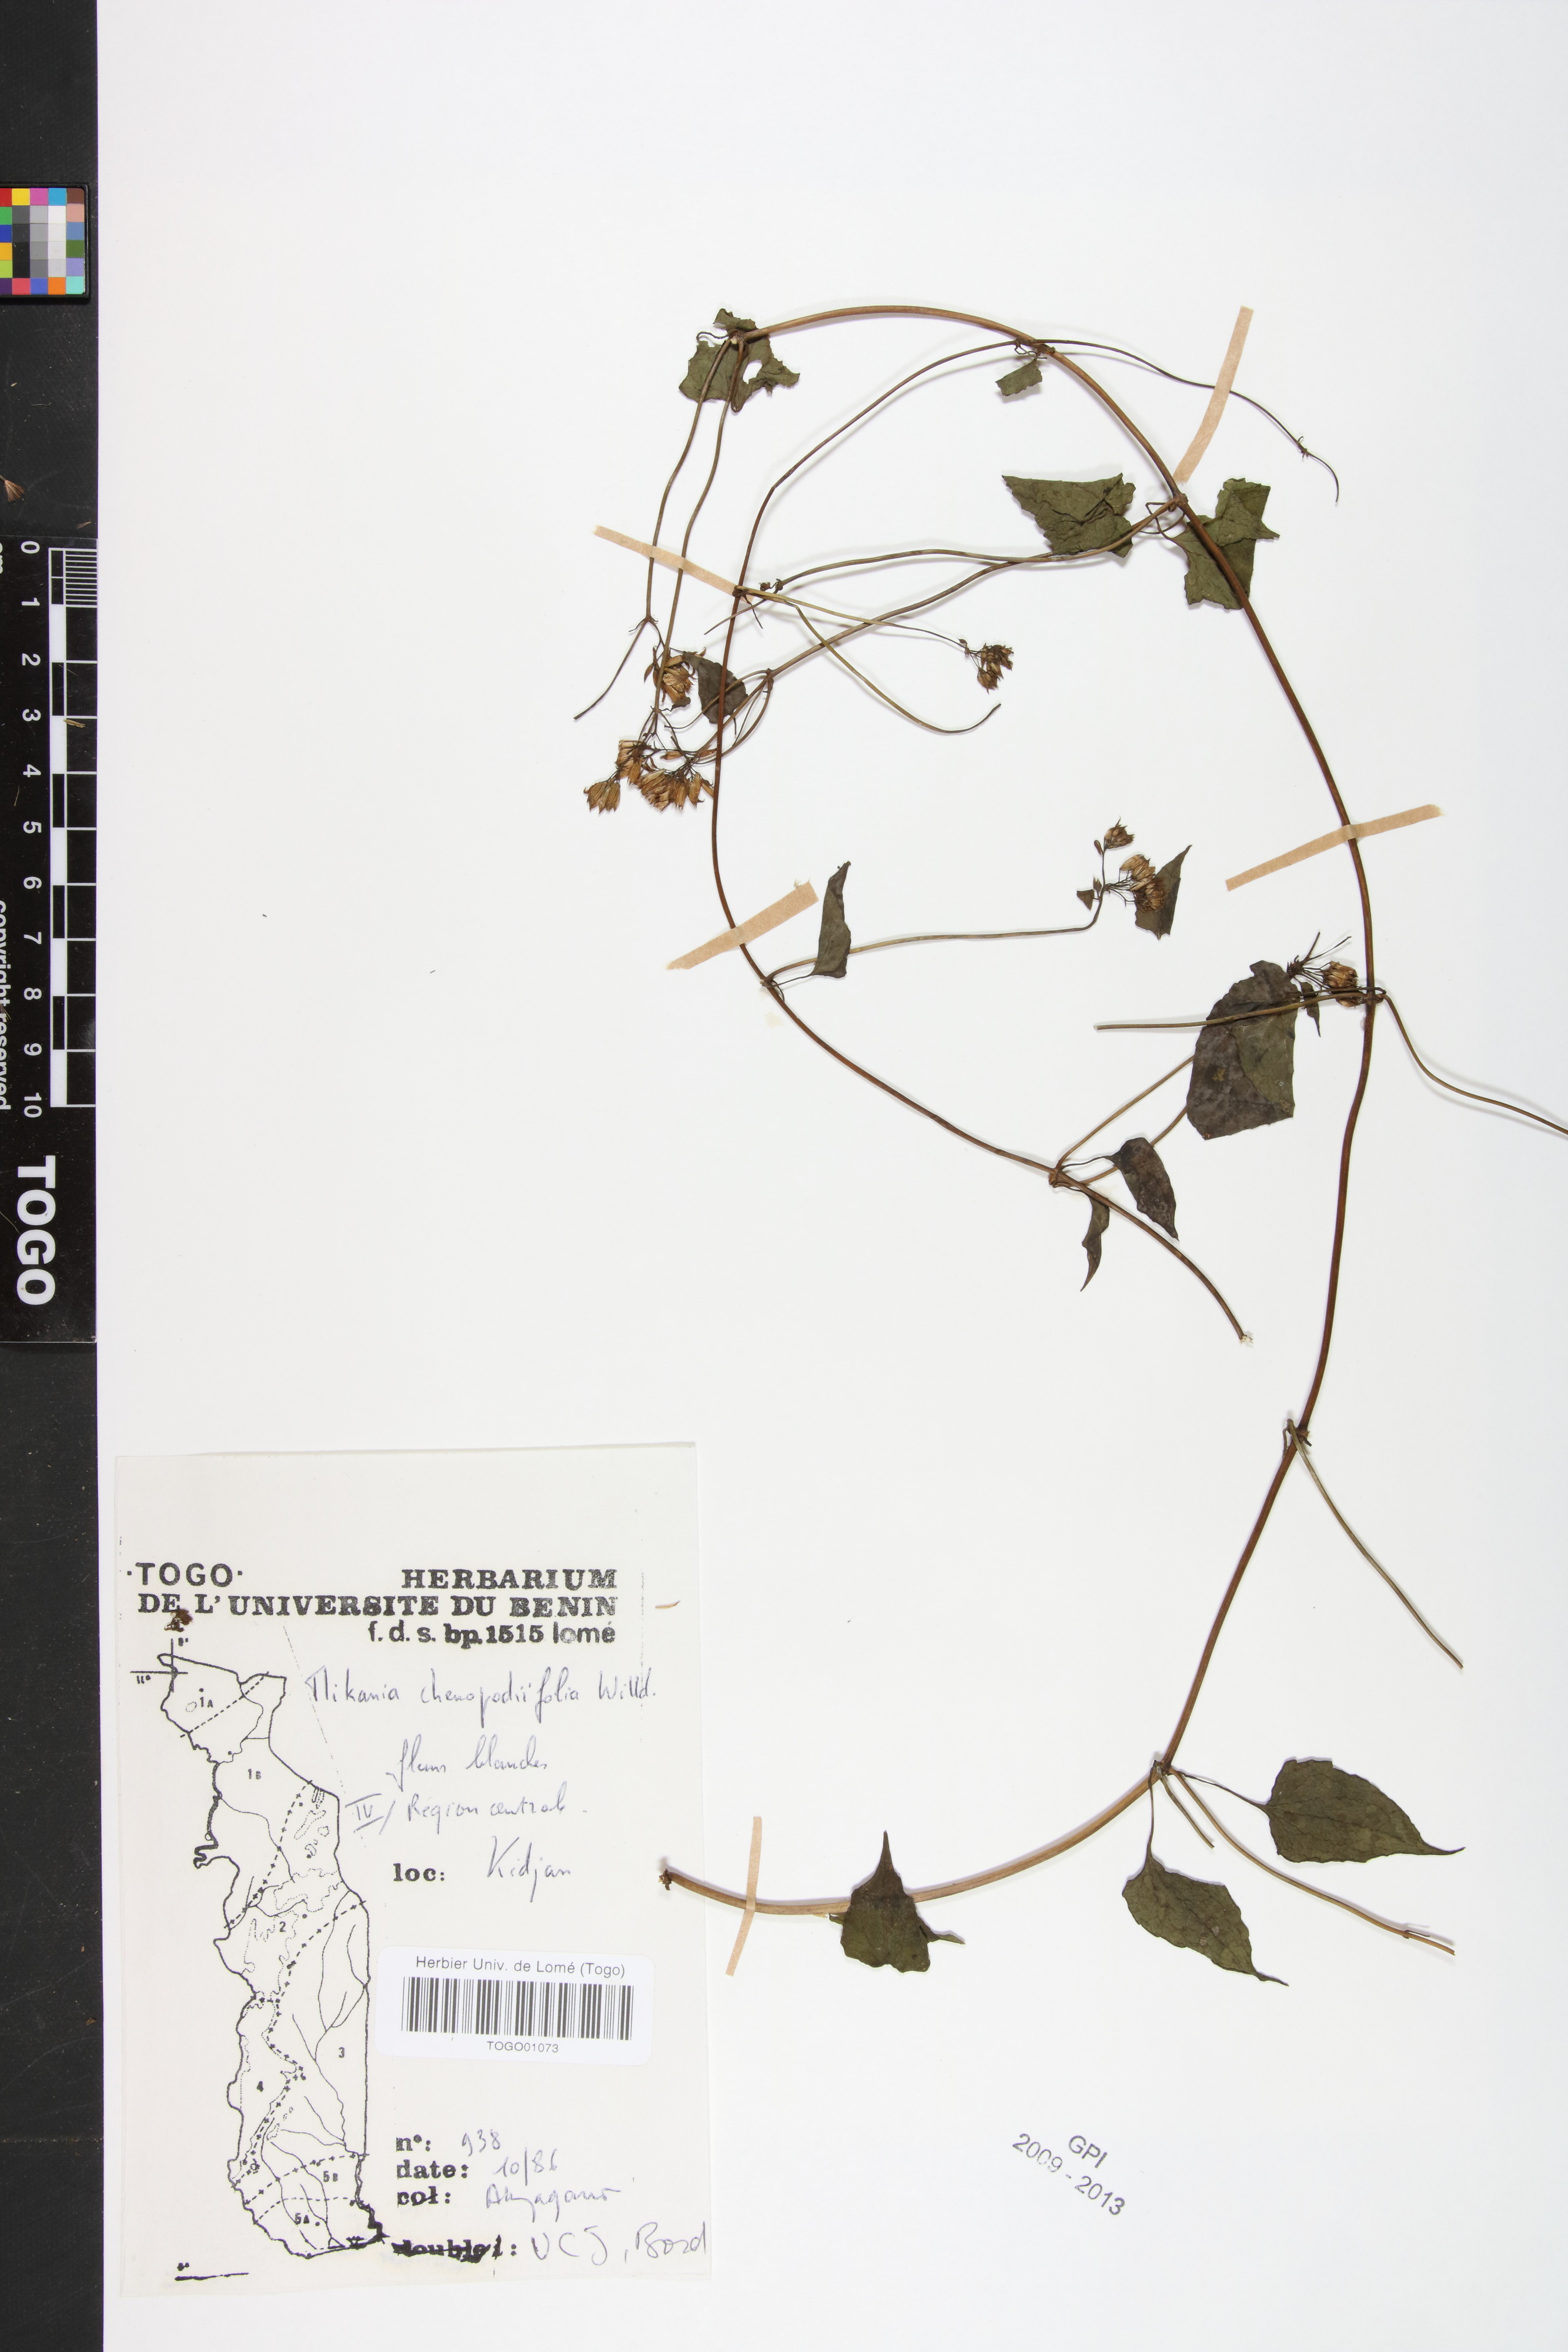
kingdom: Plantae
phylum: Tracheophyta
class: Magnoliopsida
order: Asterales
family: Asteraceae
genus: Mikania
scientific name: Mikania chenopodifolia
